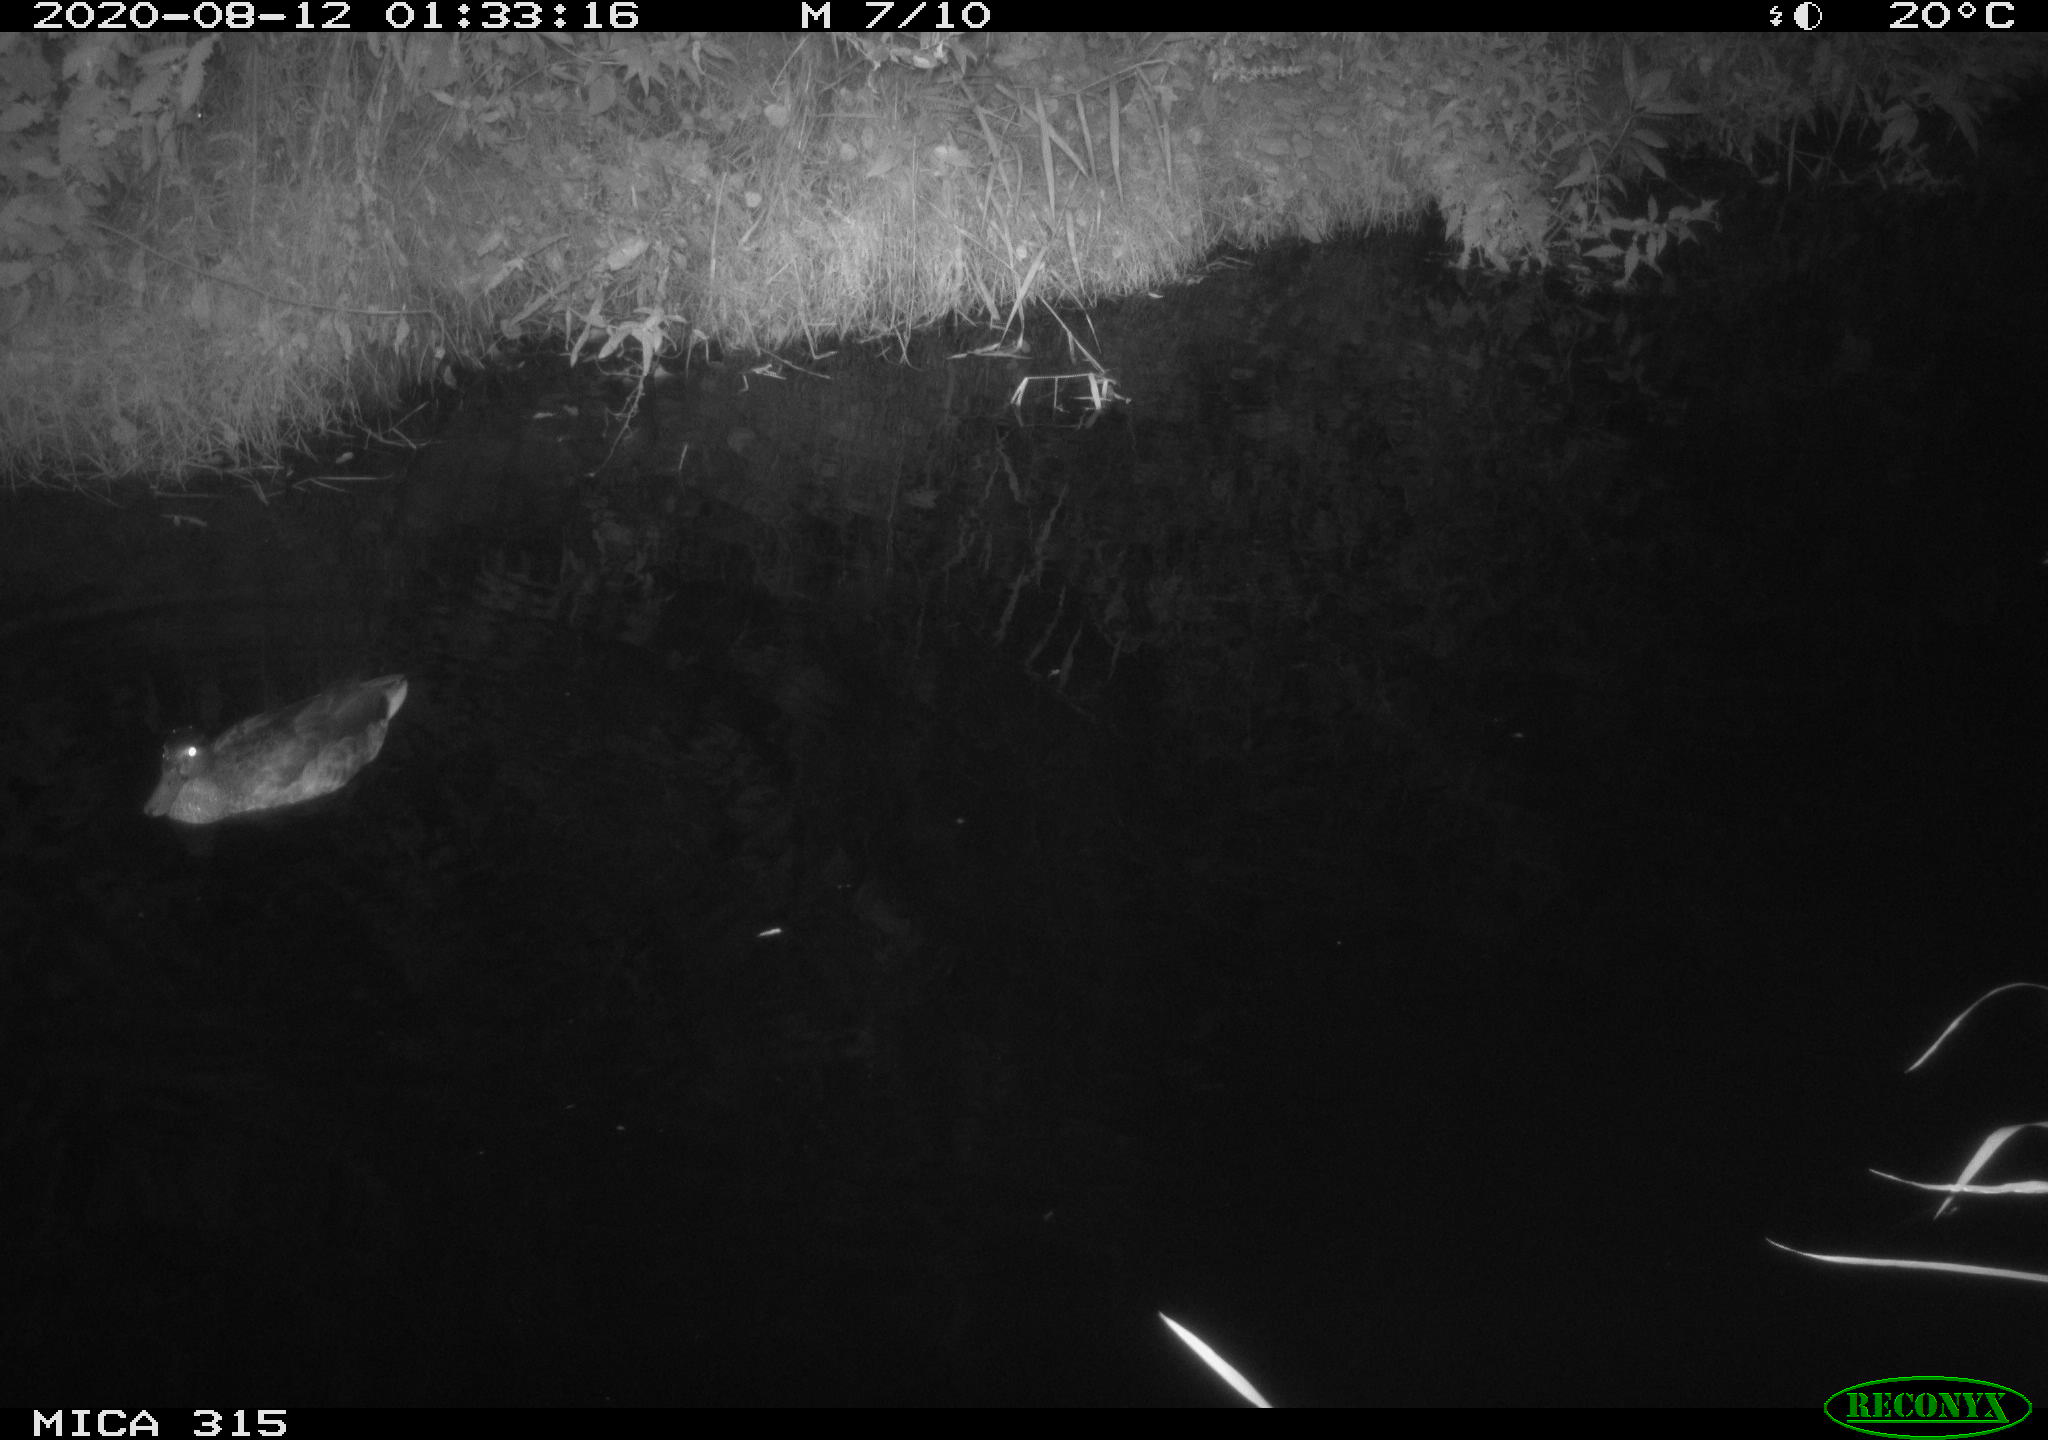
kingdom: Animalia
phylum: Chordata
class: Aves
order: Anseriformes
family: Anatidae
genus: Anas
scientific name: Anas platyrhynchos
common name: Mallard
